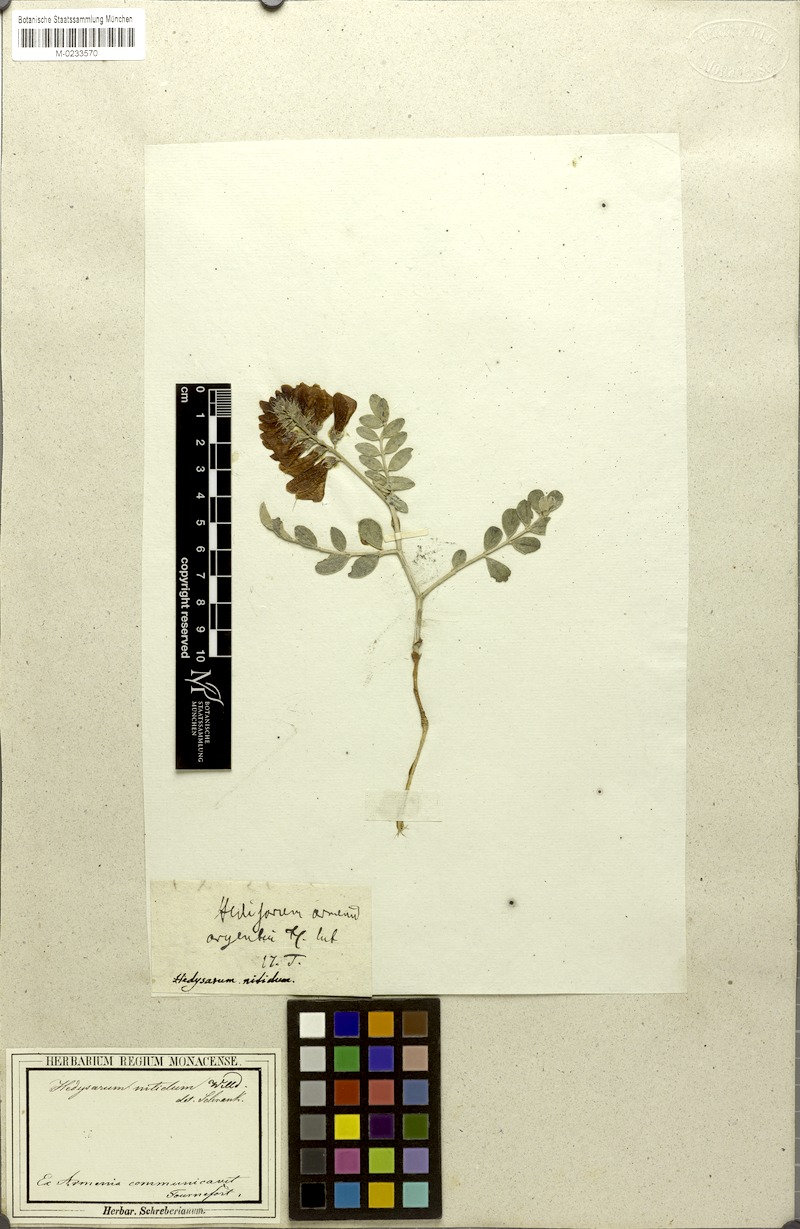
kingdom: Plantae
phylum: Tracheophyta
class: Magnoliopsida
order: Fabales
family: Fabaceae
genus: Hedysarum
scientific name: Hedysarum nitidum
